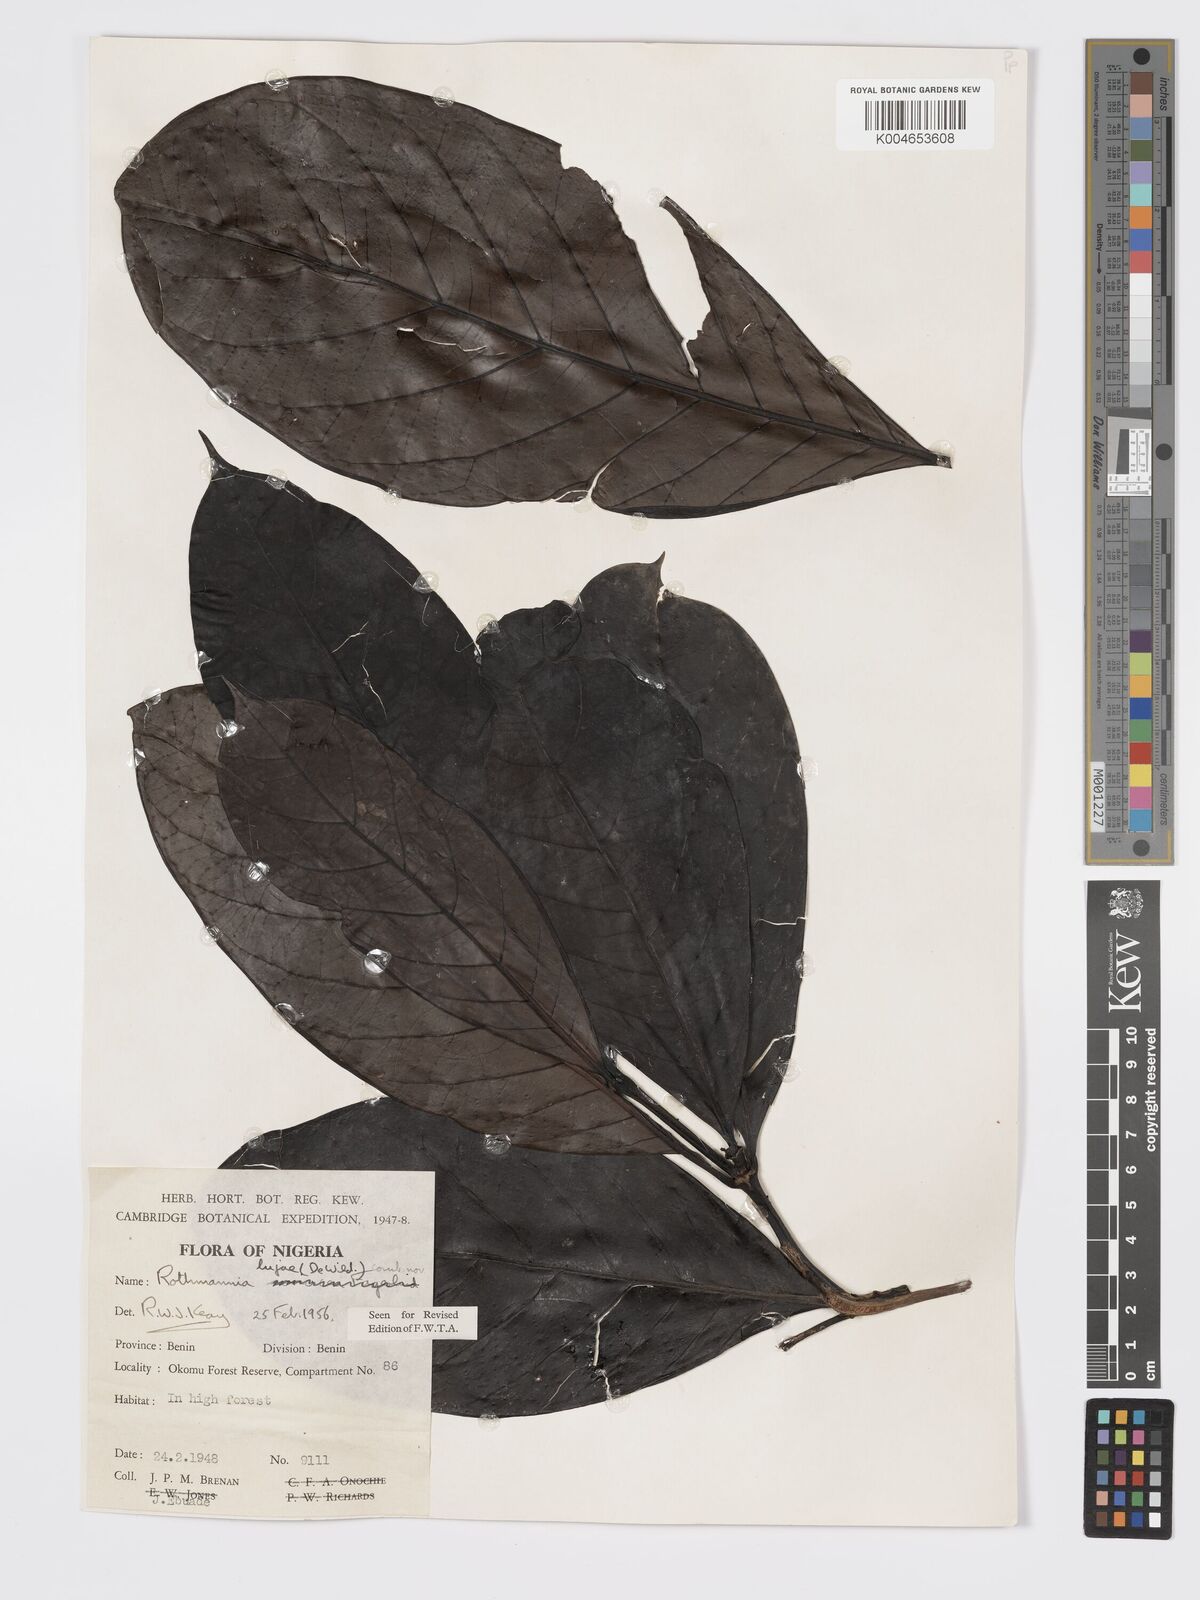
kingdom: Plantae
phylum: Tracheophyta
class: Magnoliopsida
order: Gentianales
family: Rubiaceae
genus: Rothmannia
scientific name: Rothmannia lujae
